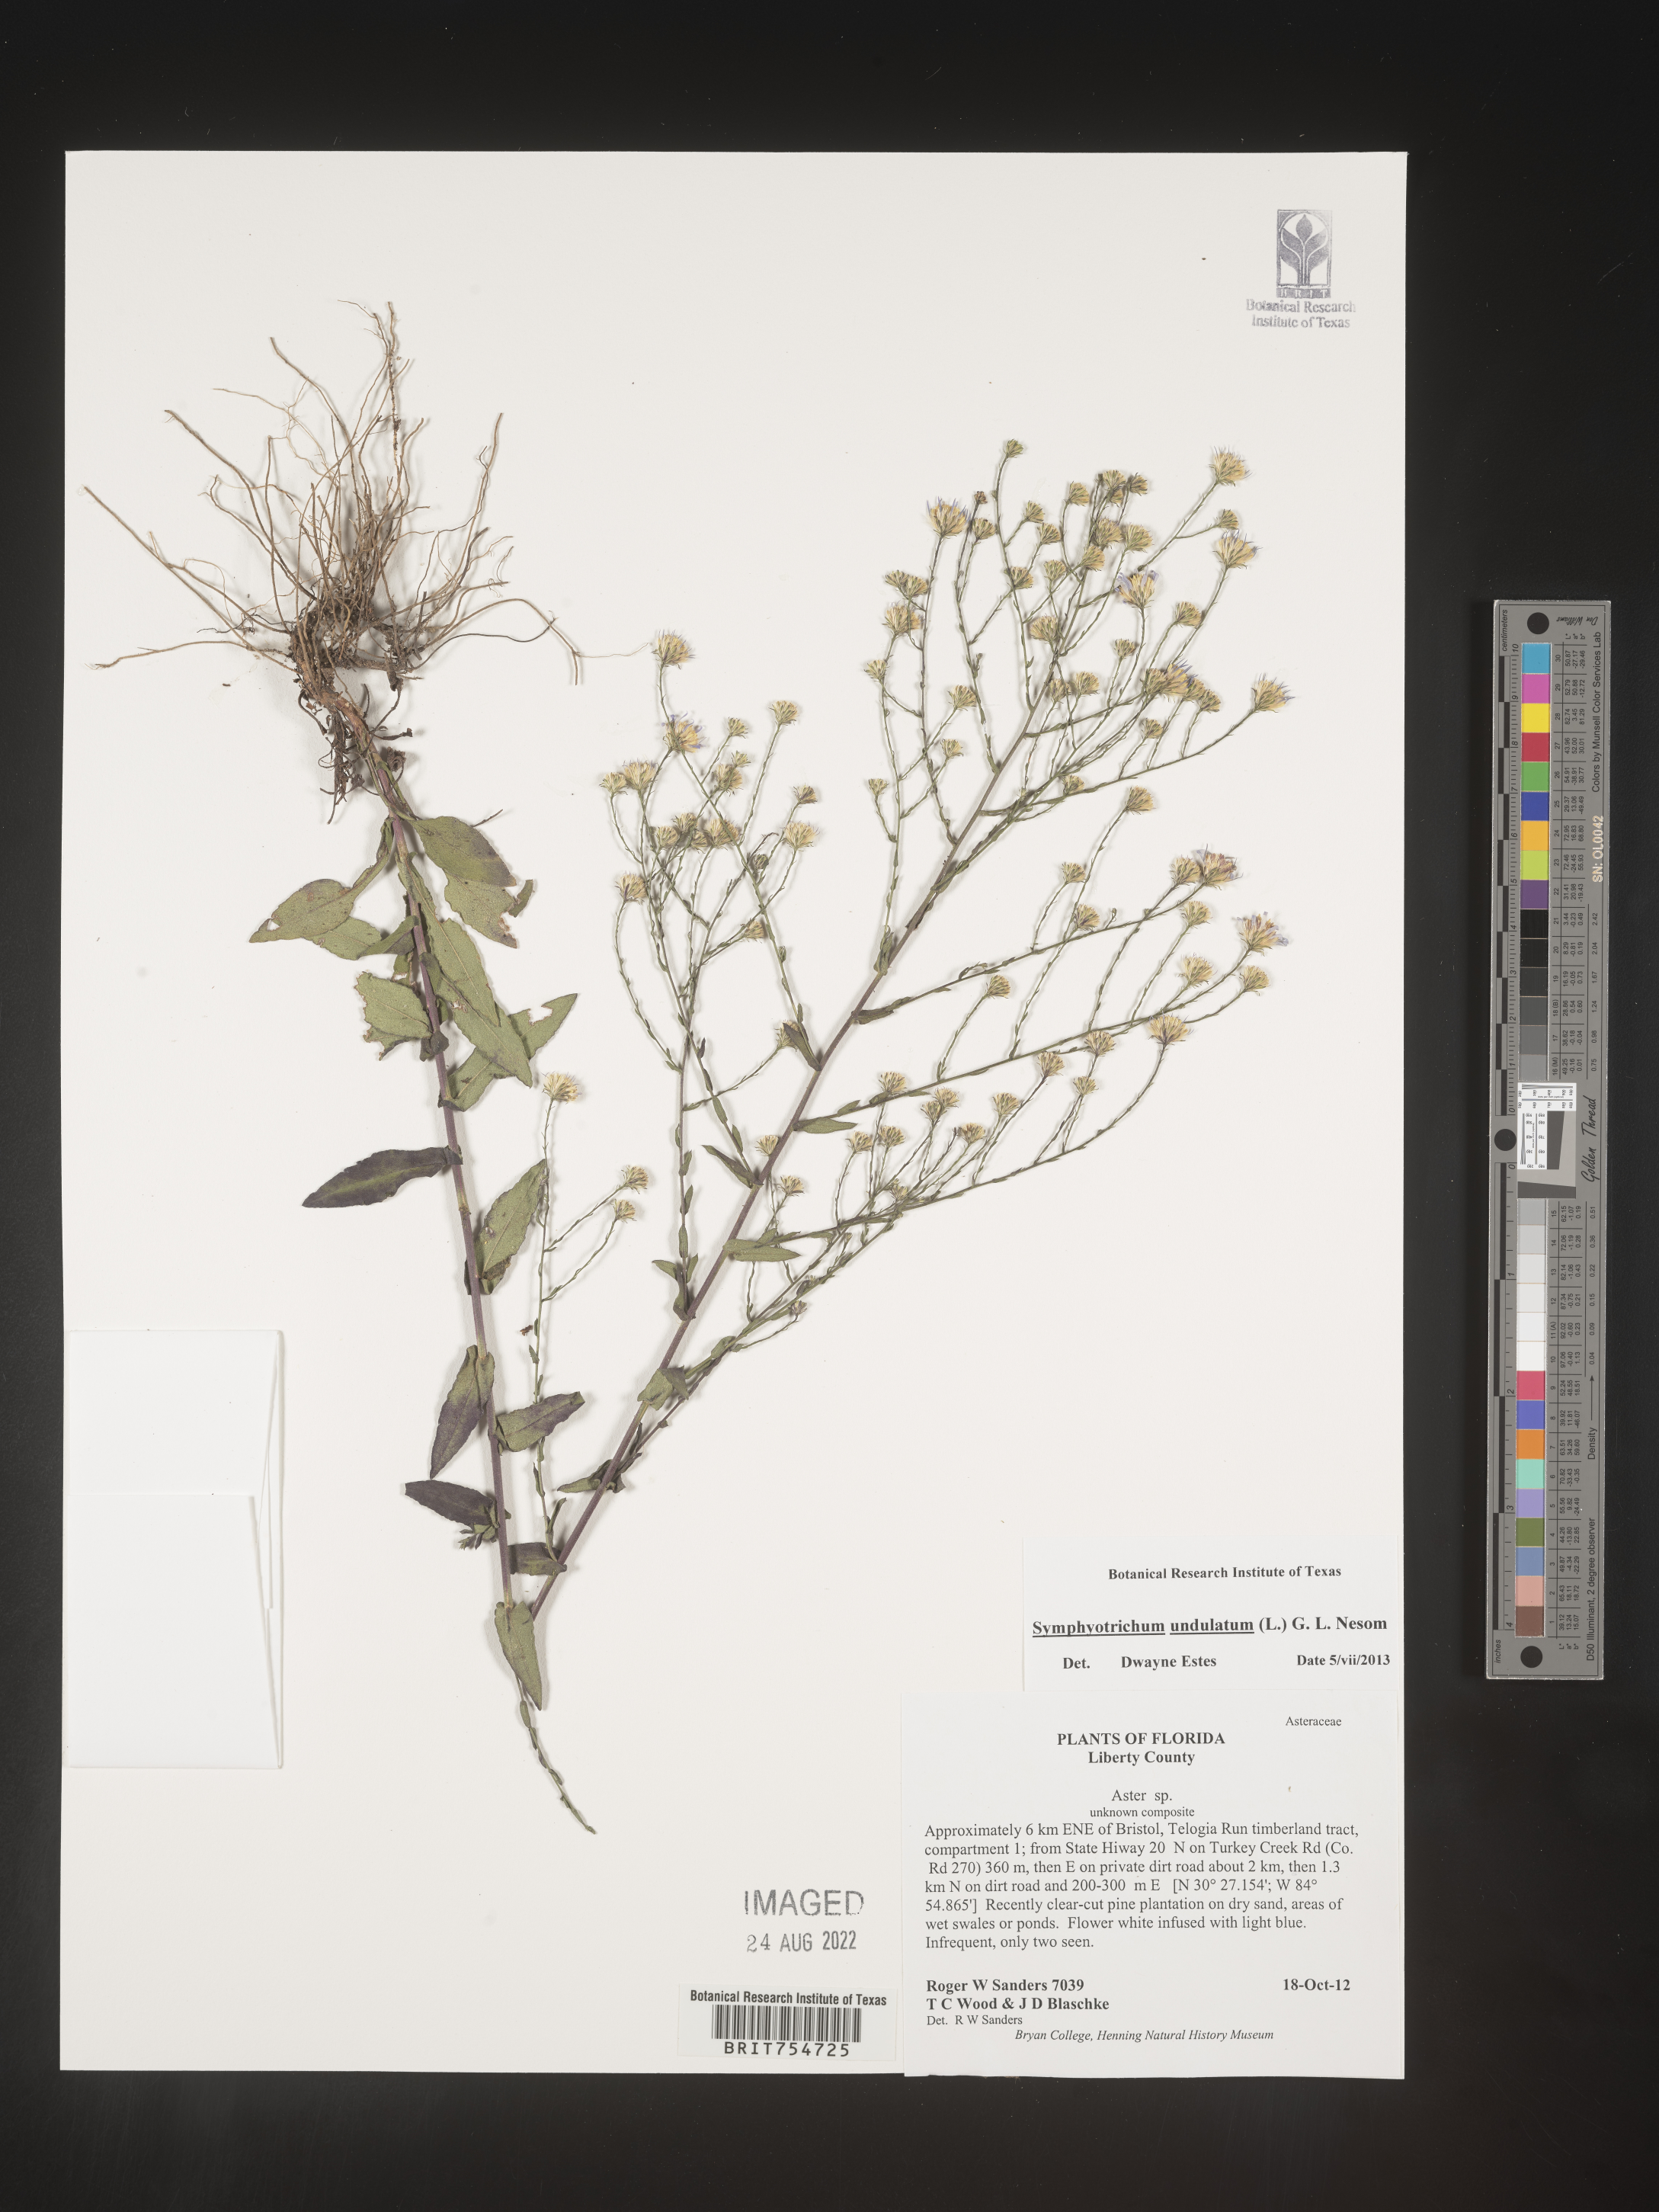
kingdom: Plantae
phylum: Tracheophyta
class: Magnoliopsida
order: Asterales
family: Asteraceae
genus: Symphyotrichum
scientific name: Symphyotrichum undulatum
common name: Clasping heart-leaf aster
